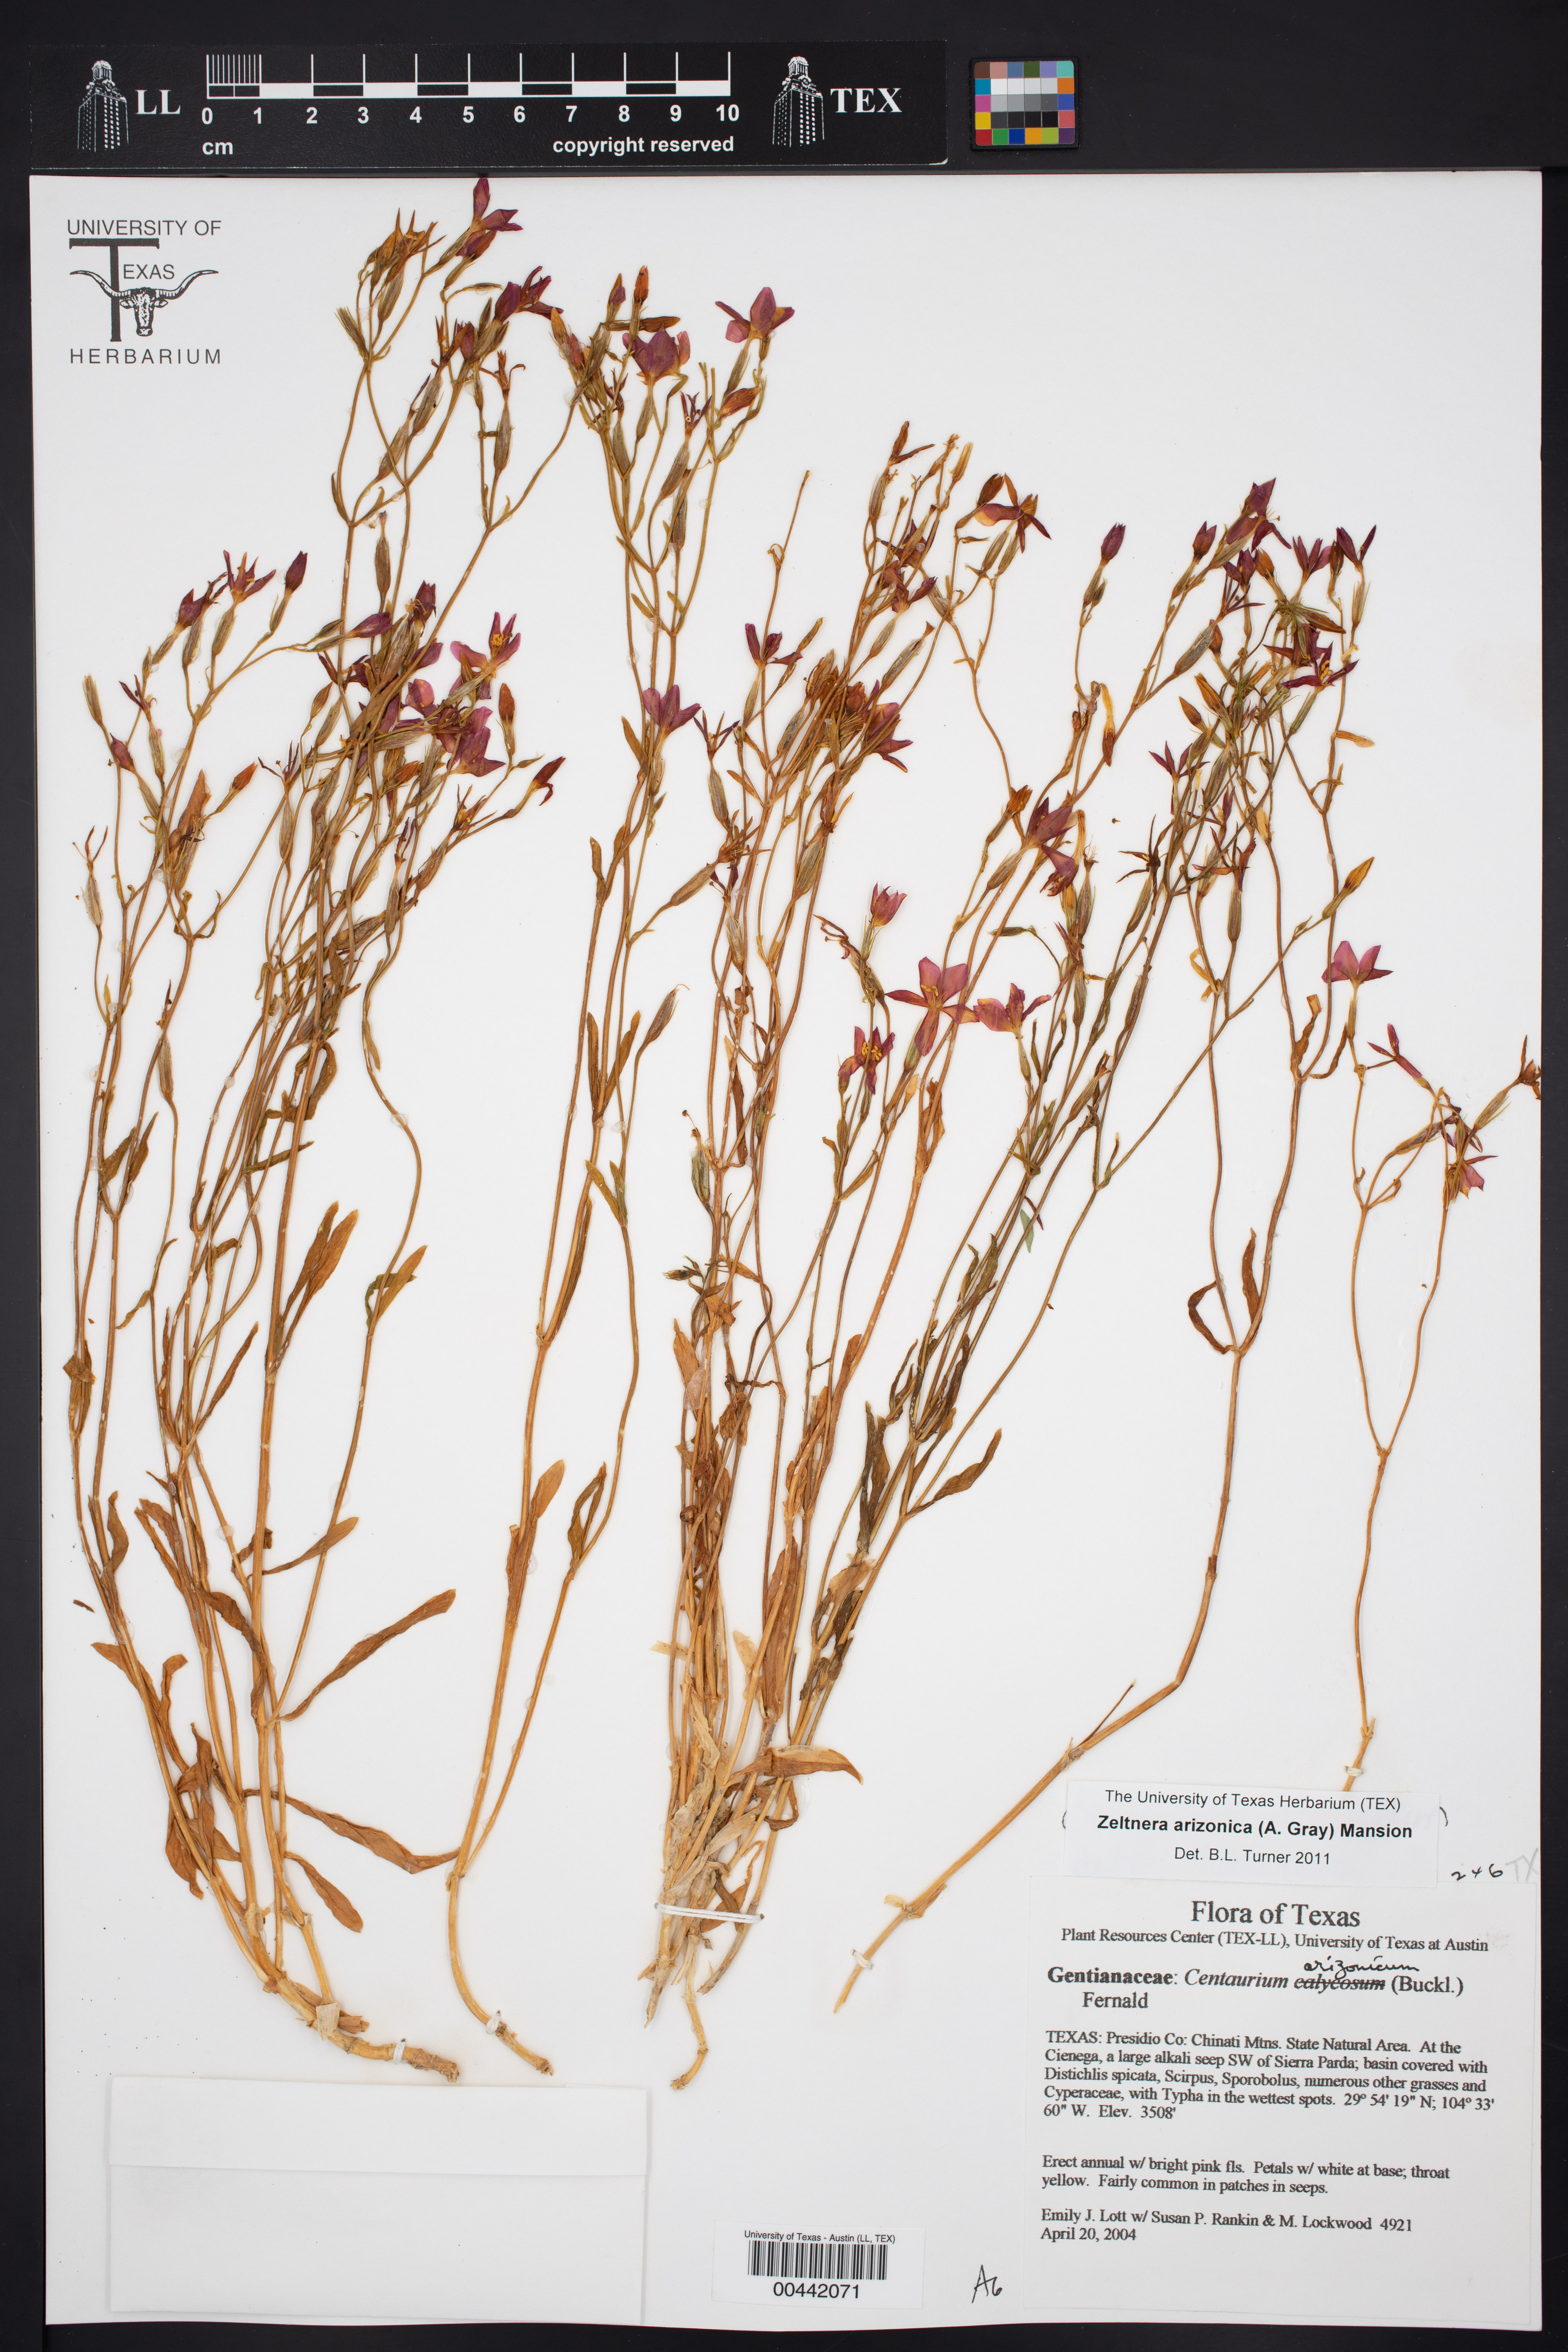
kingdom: Plantae
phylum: Tracheophyta
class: Magnoliopsida
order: Gentianales
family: Gentianaceae
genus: Zeltnera
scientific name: Zeltnera arizonica
